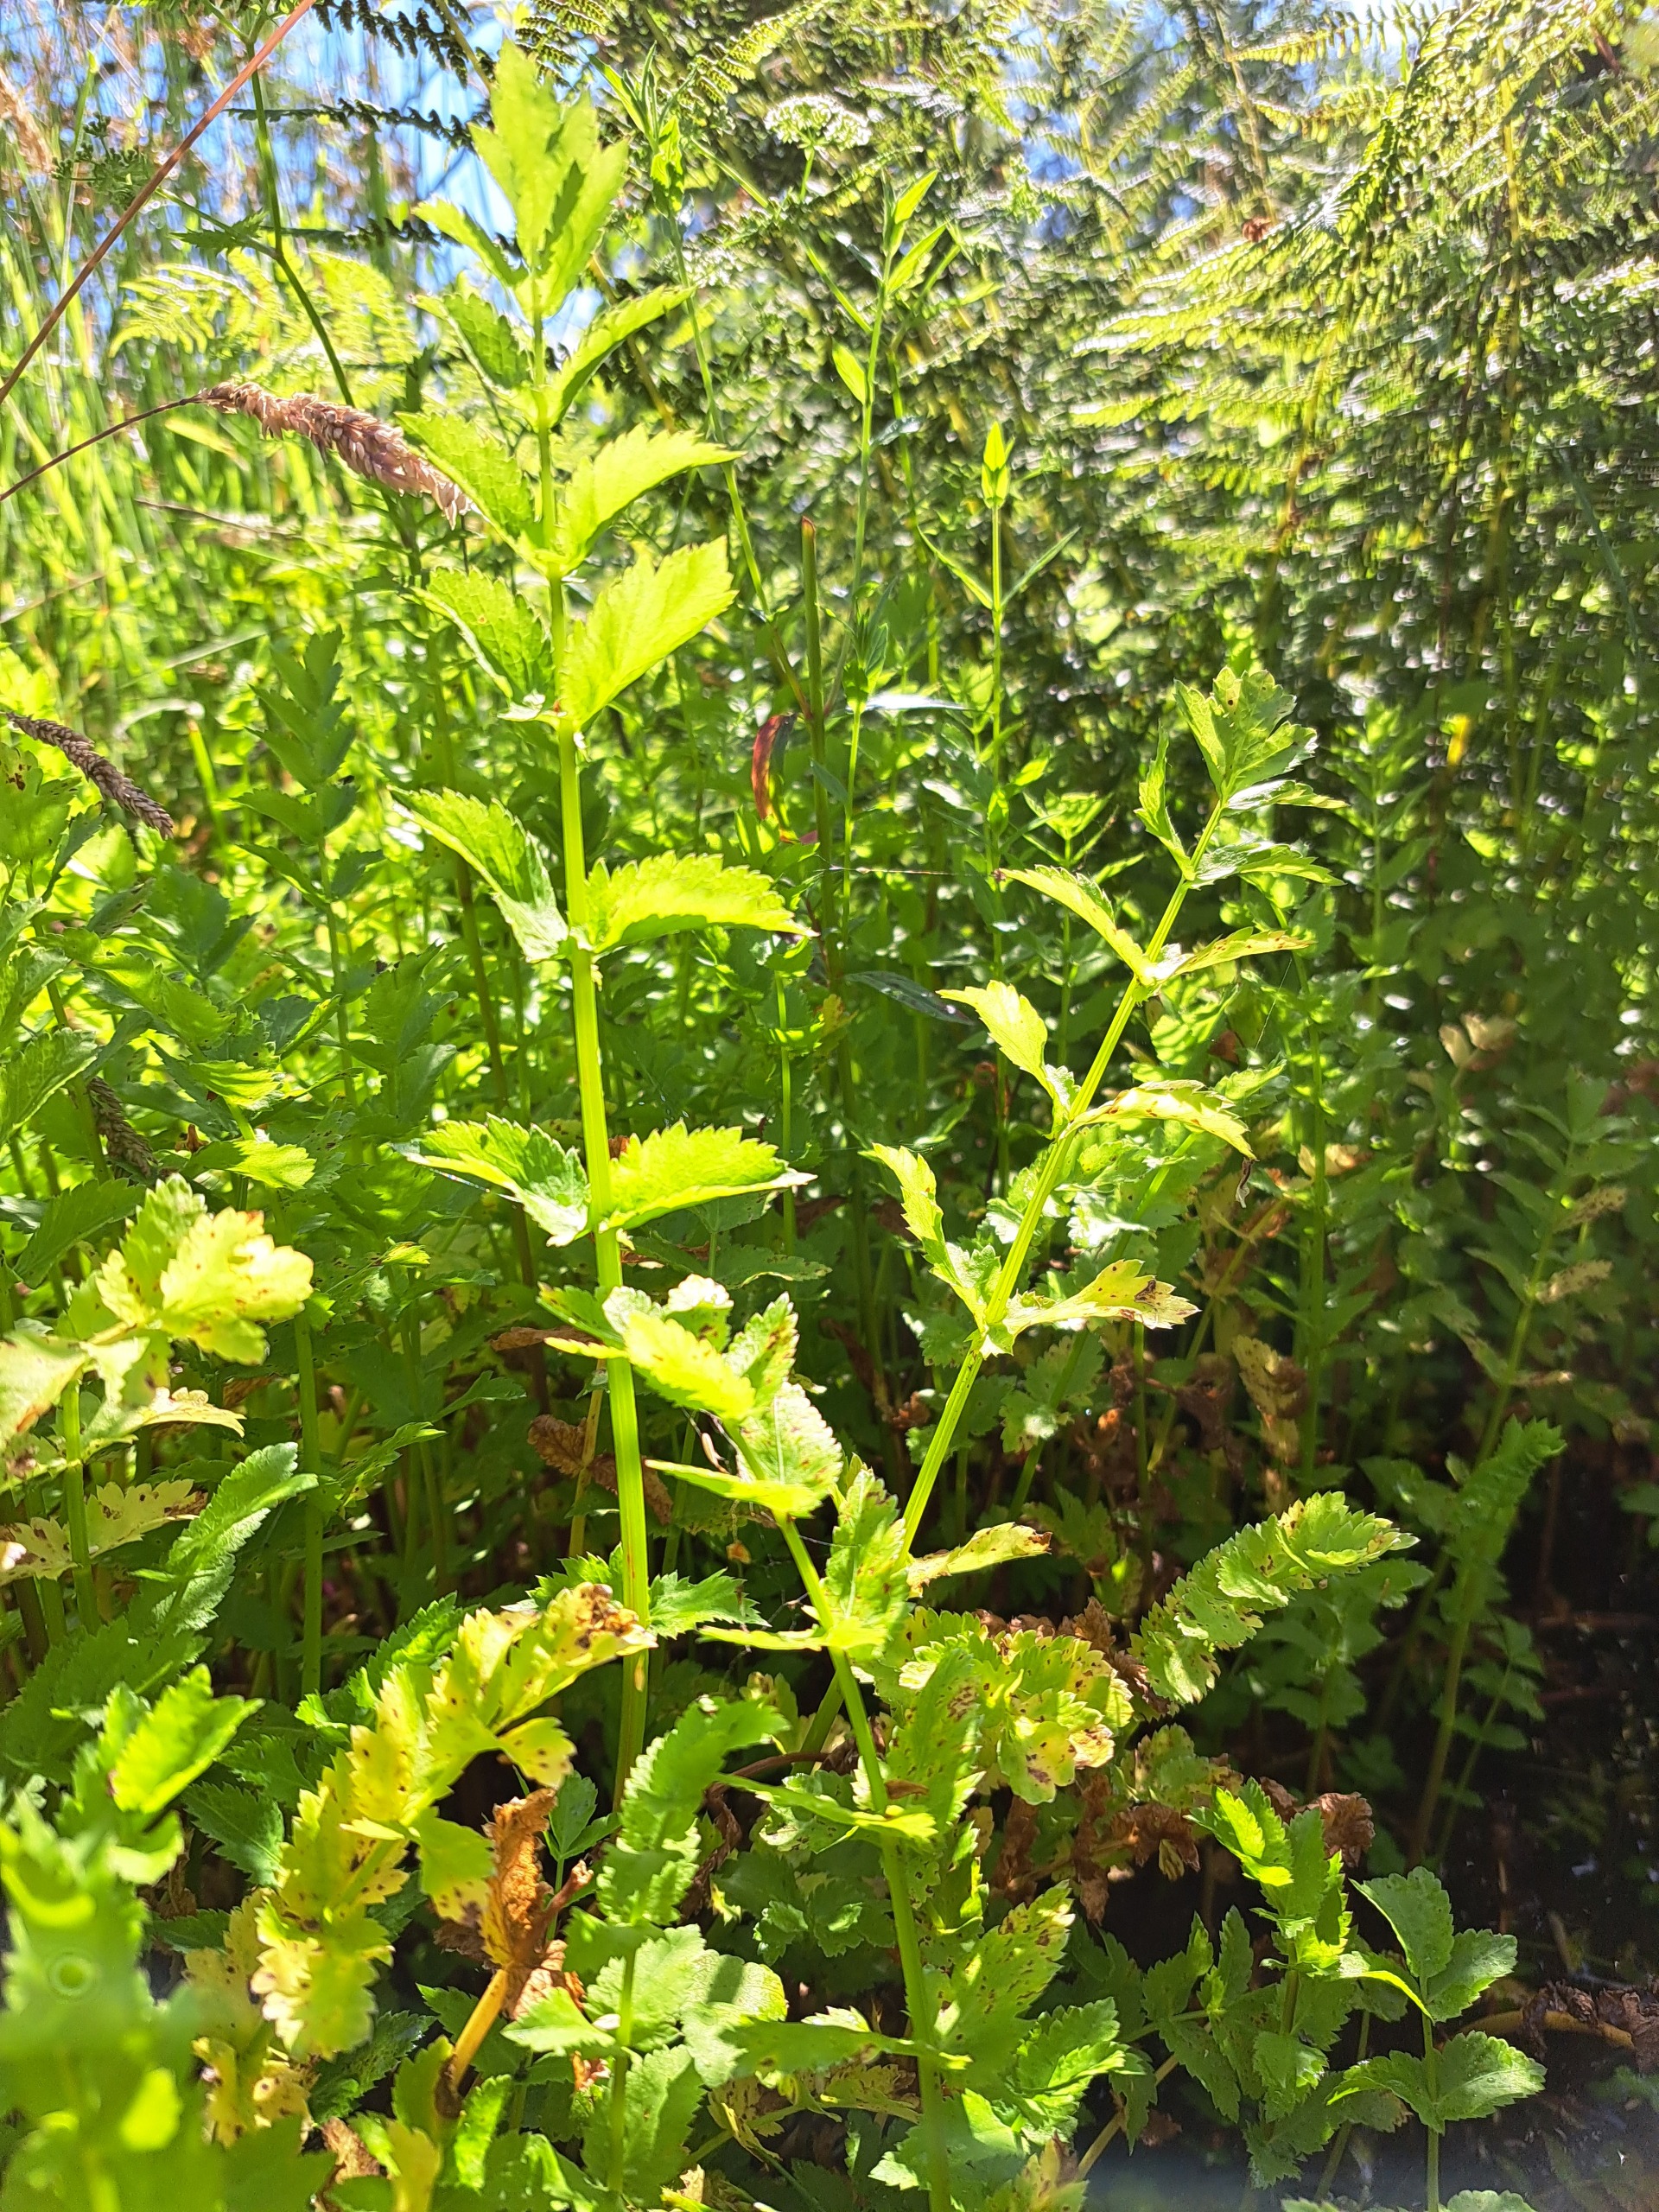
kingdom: Plantae
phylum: Tracheophyta
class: Magnoliopsida
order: Apiales
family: Apiaceae
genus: Berula
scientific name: Berula erecta
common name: Sideskærm
